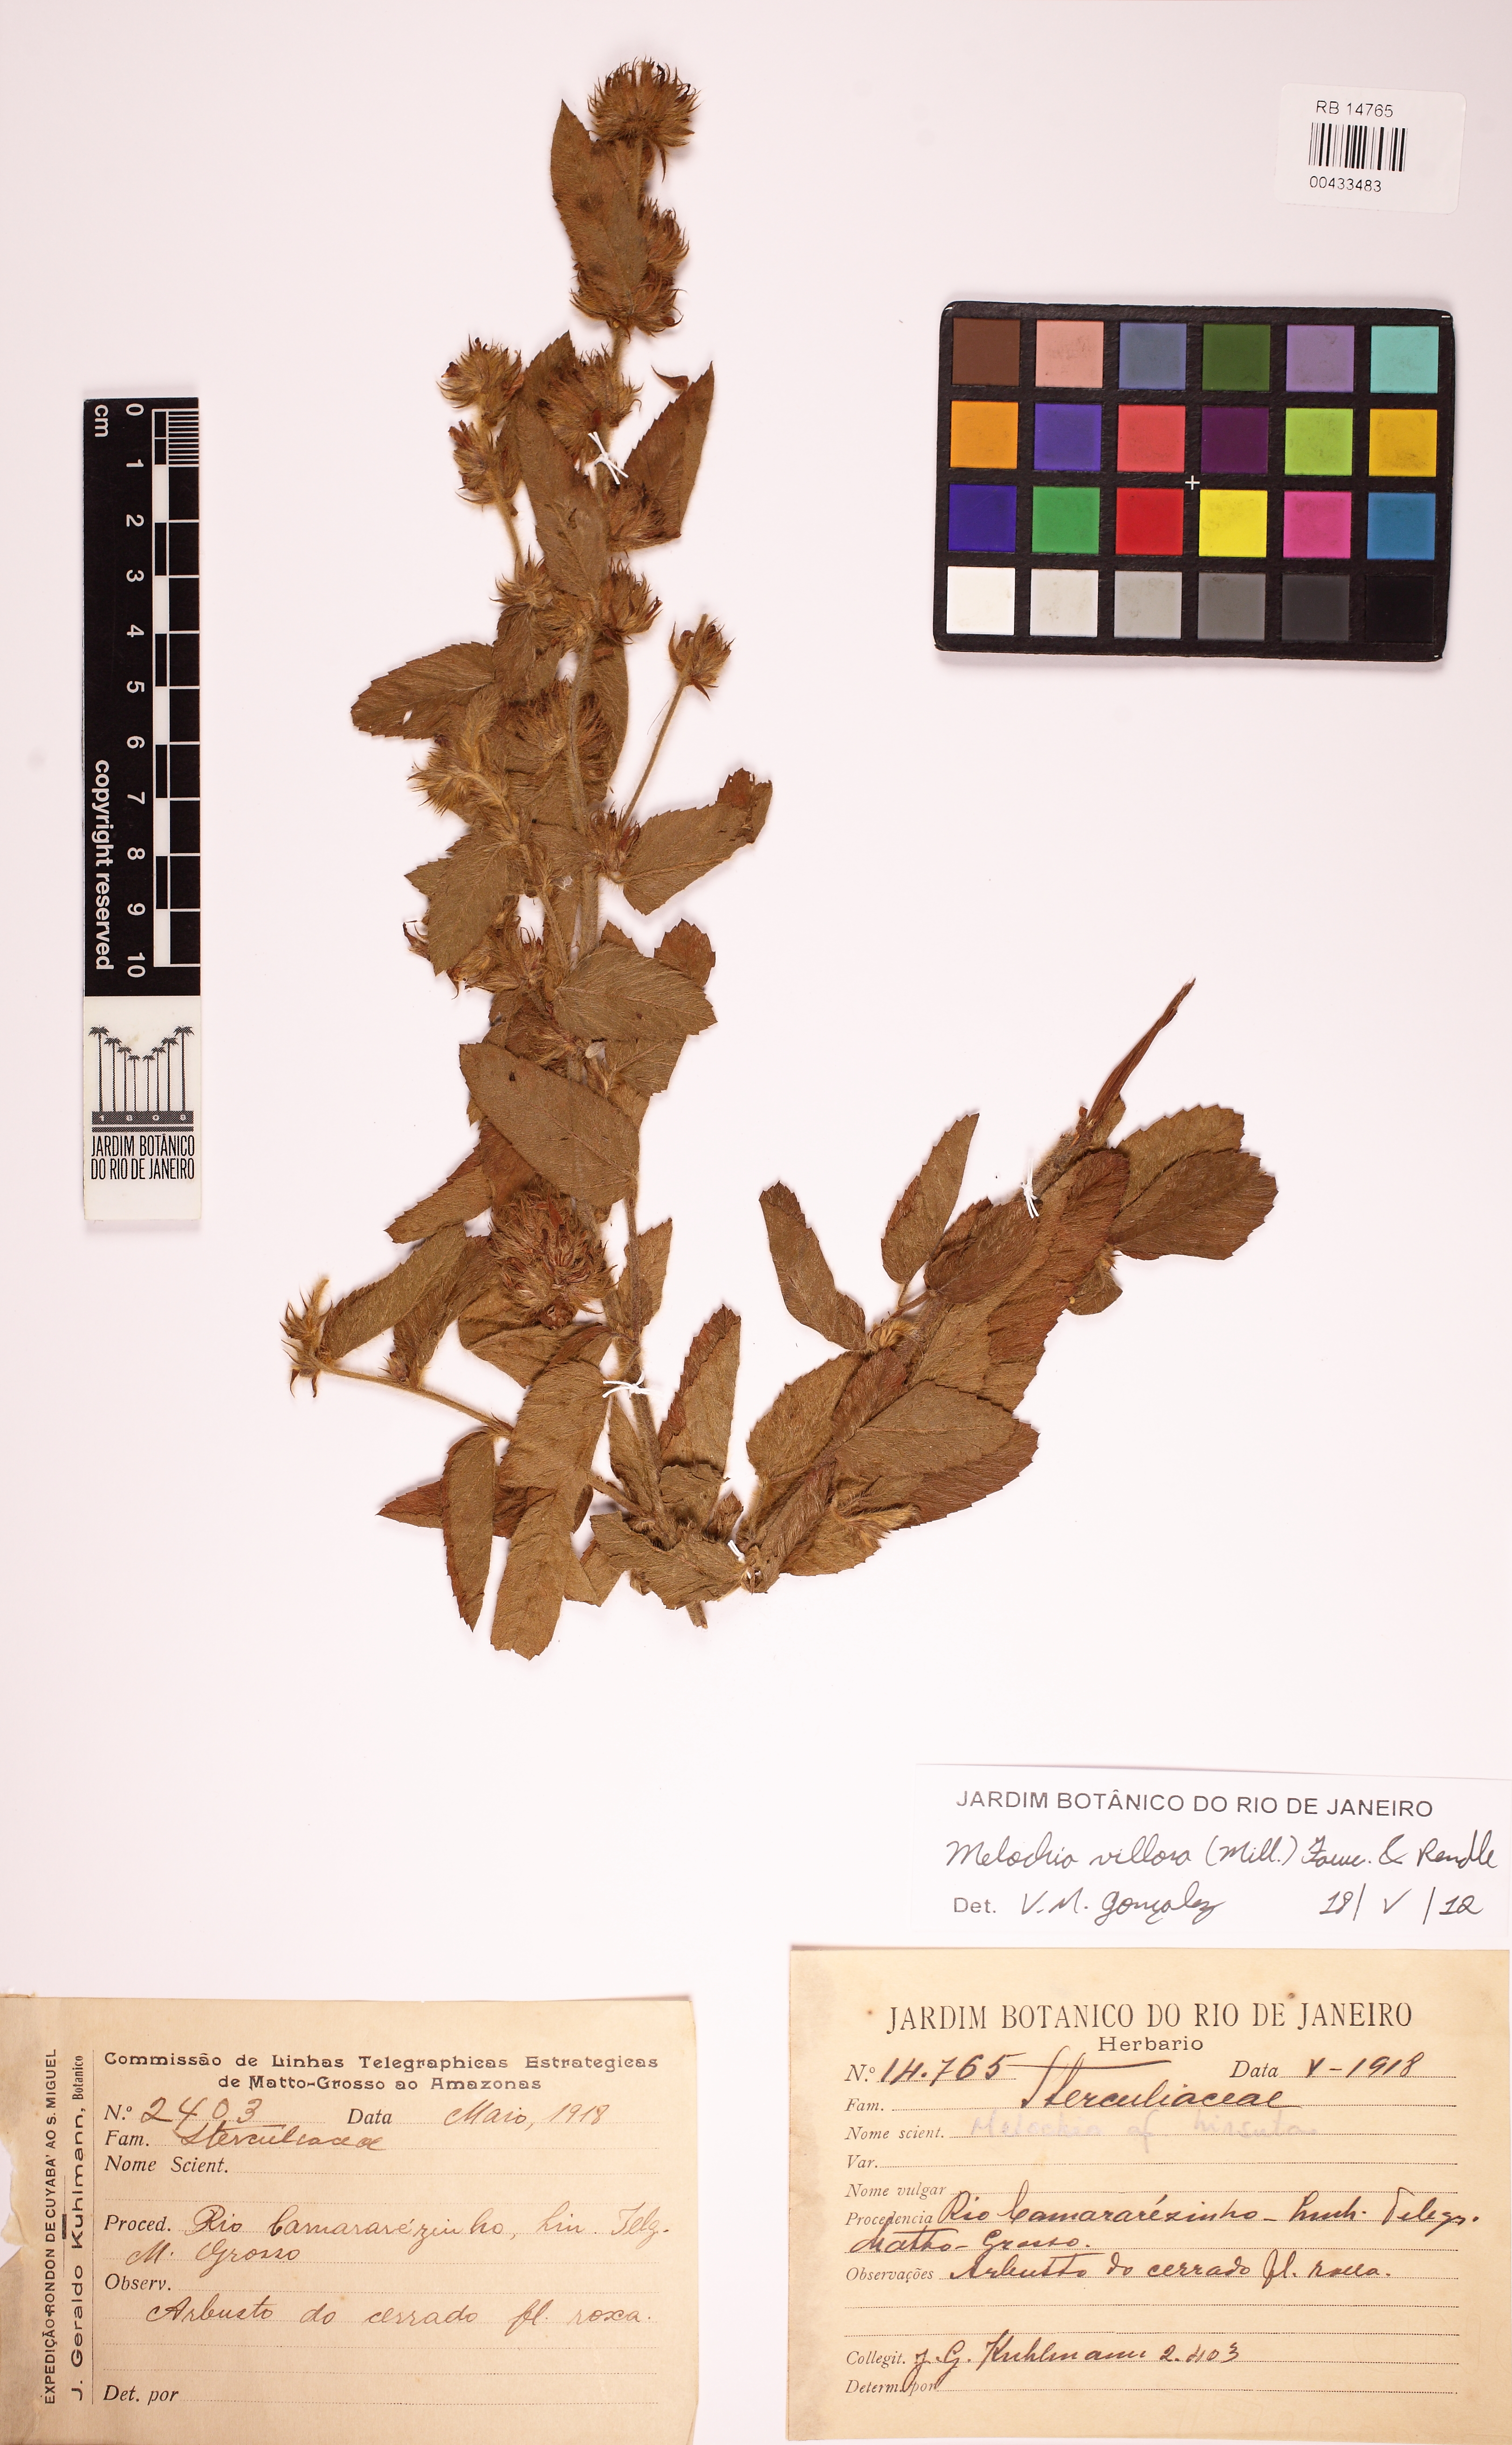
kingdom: Plantae
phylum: Tracheophyta
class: Magnoliopsida
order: Malvales
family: Malvaceae
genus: Melochia
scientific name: Melochia spicata
